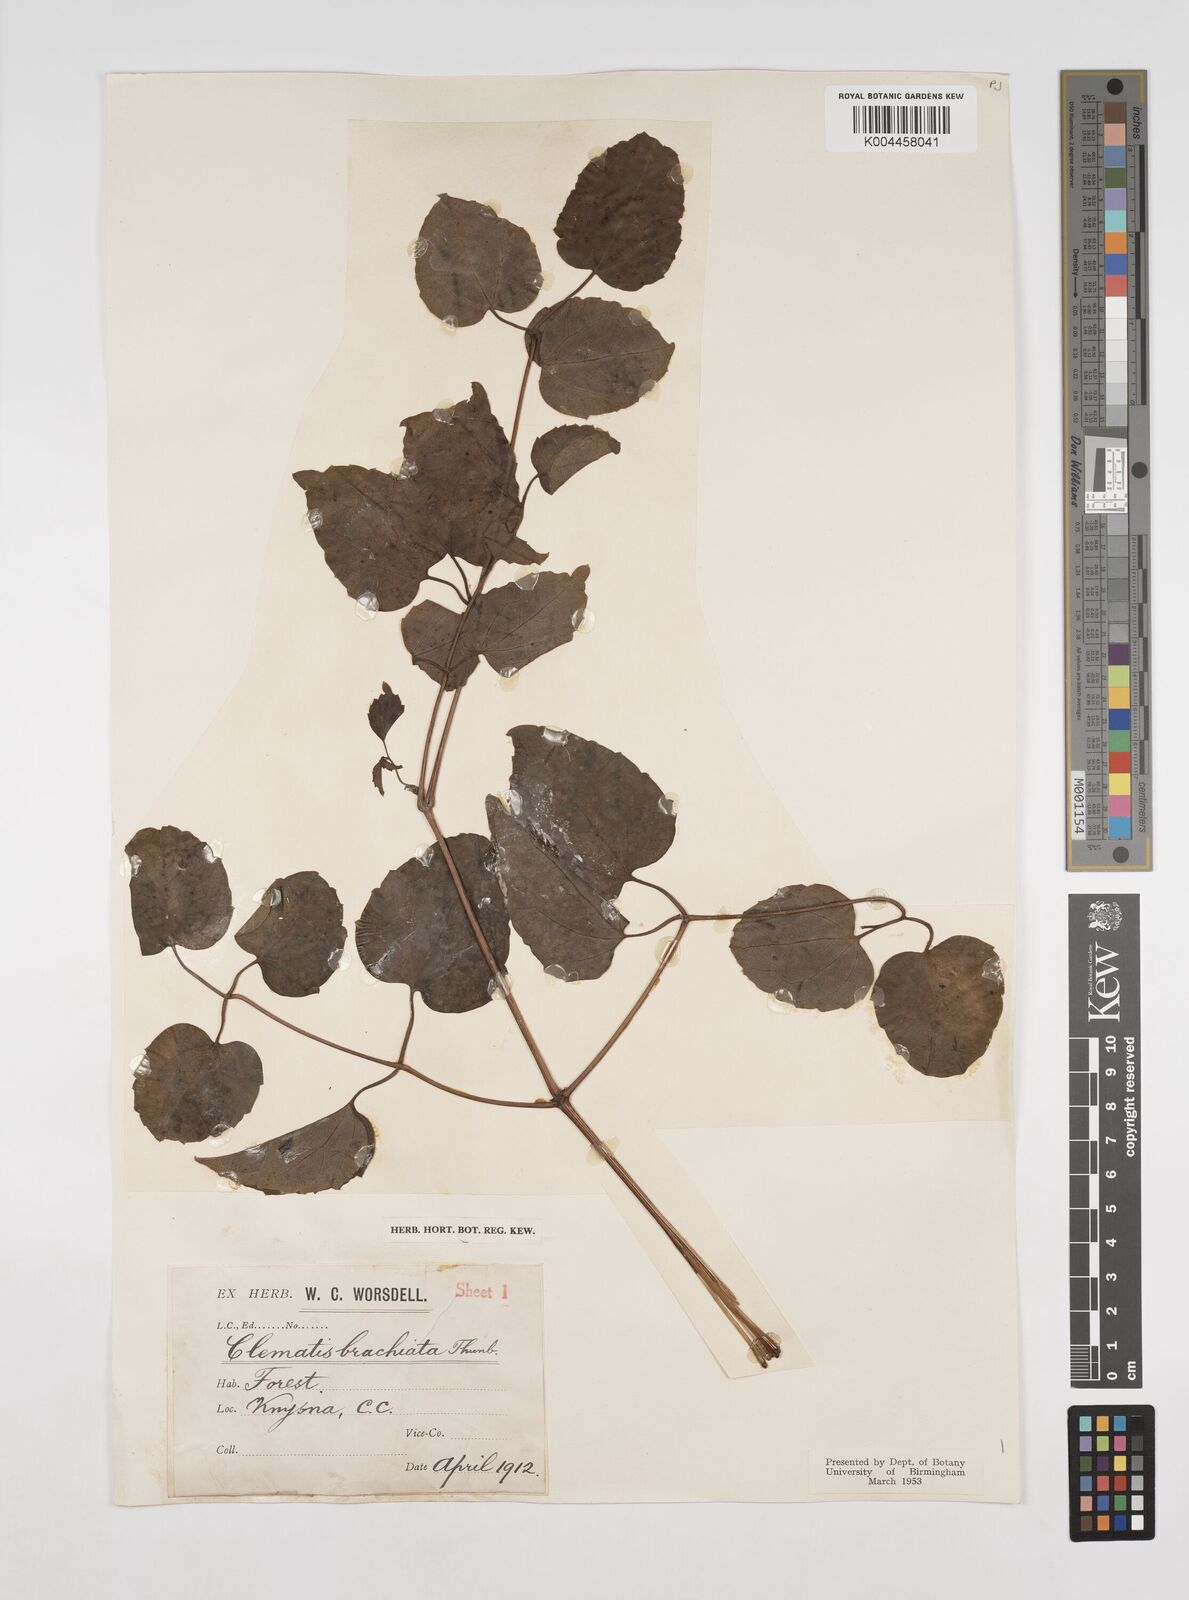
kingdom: Plantae
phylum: Tracheophyta
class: Magnoliopsida
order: Ranunculales
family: Ranunculaceae
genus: Clematis
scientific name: Clematis brachiata
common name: Traveler's-joy
